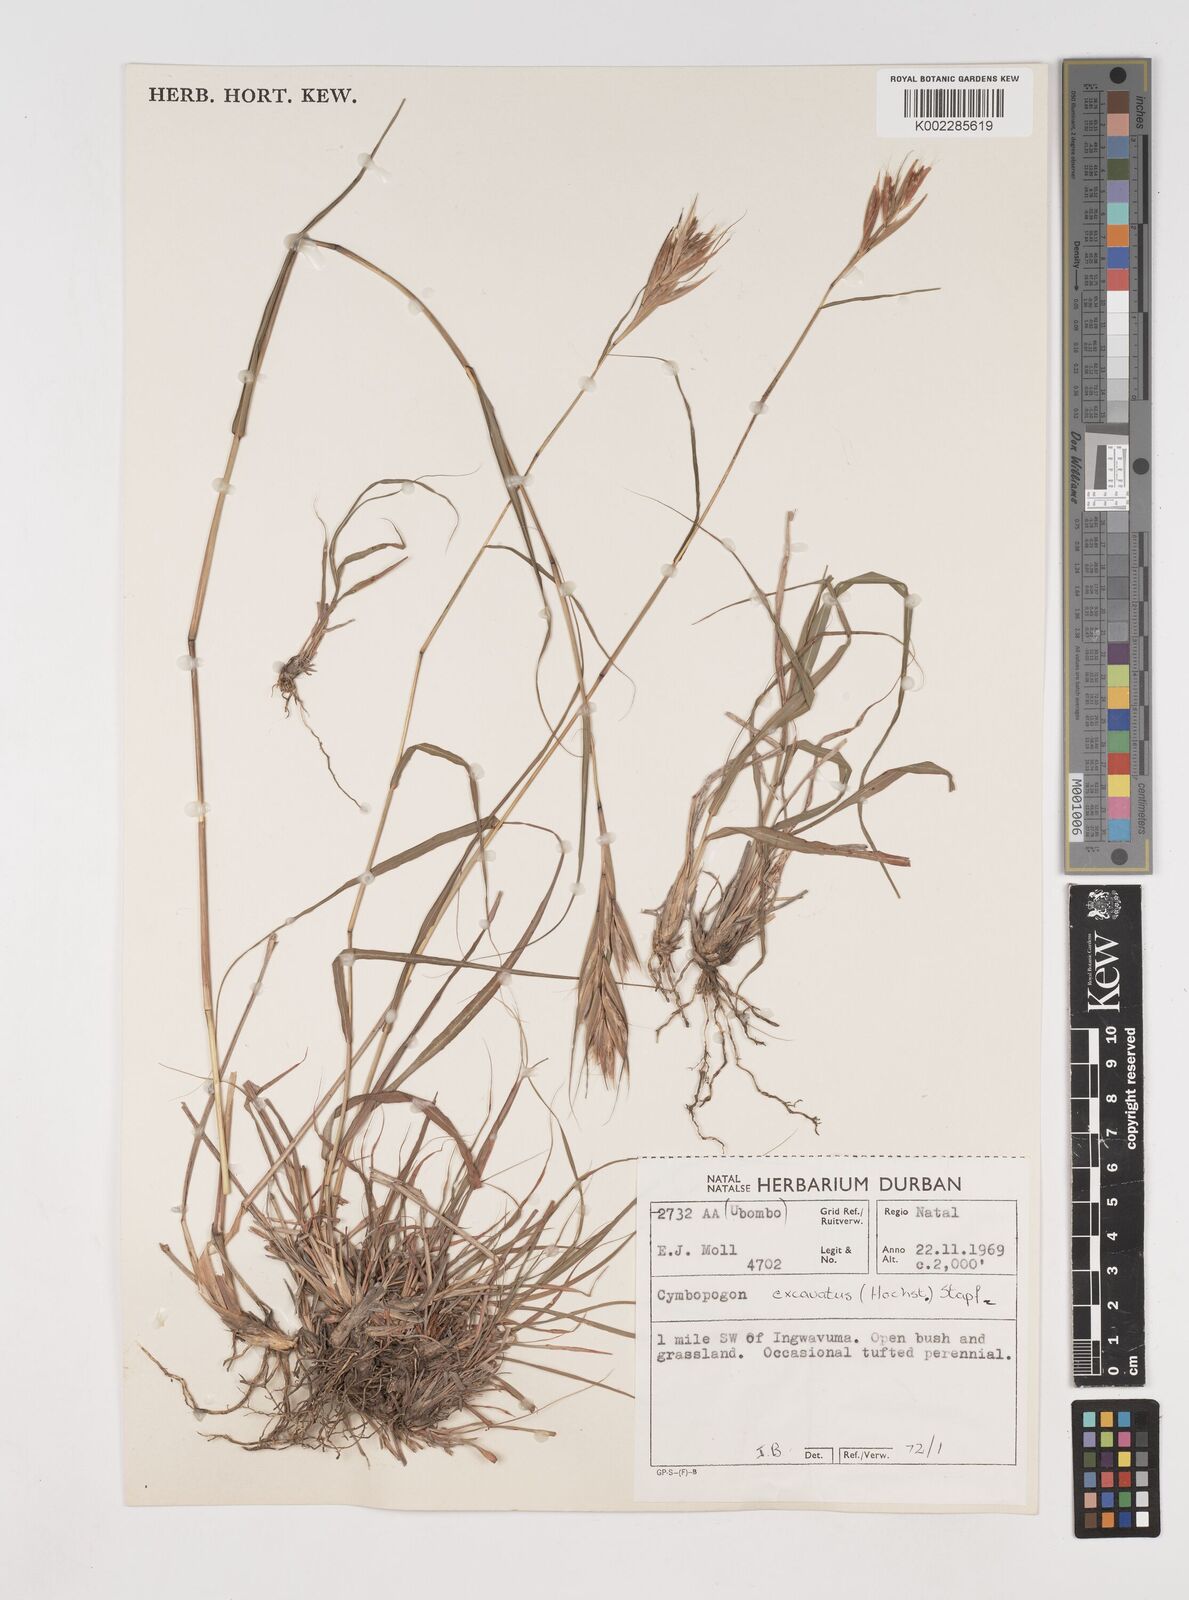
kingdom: Plantae
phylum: Tracheophyta
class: Liliopsida
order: Poales
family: Poaceae
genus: Cymbopogon
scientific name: Cymbopogon caesius
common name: Kachi grass
